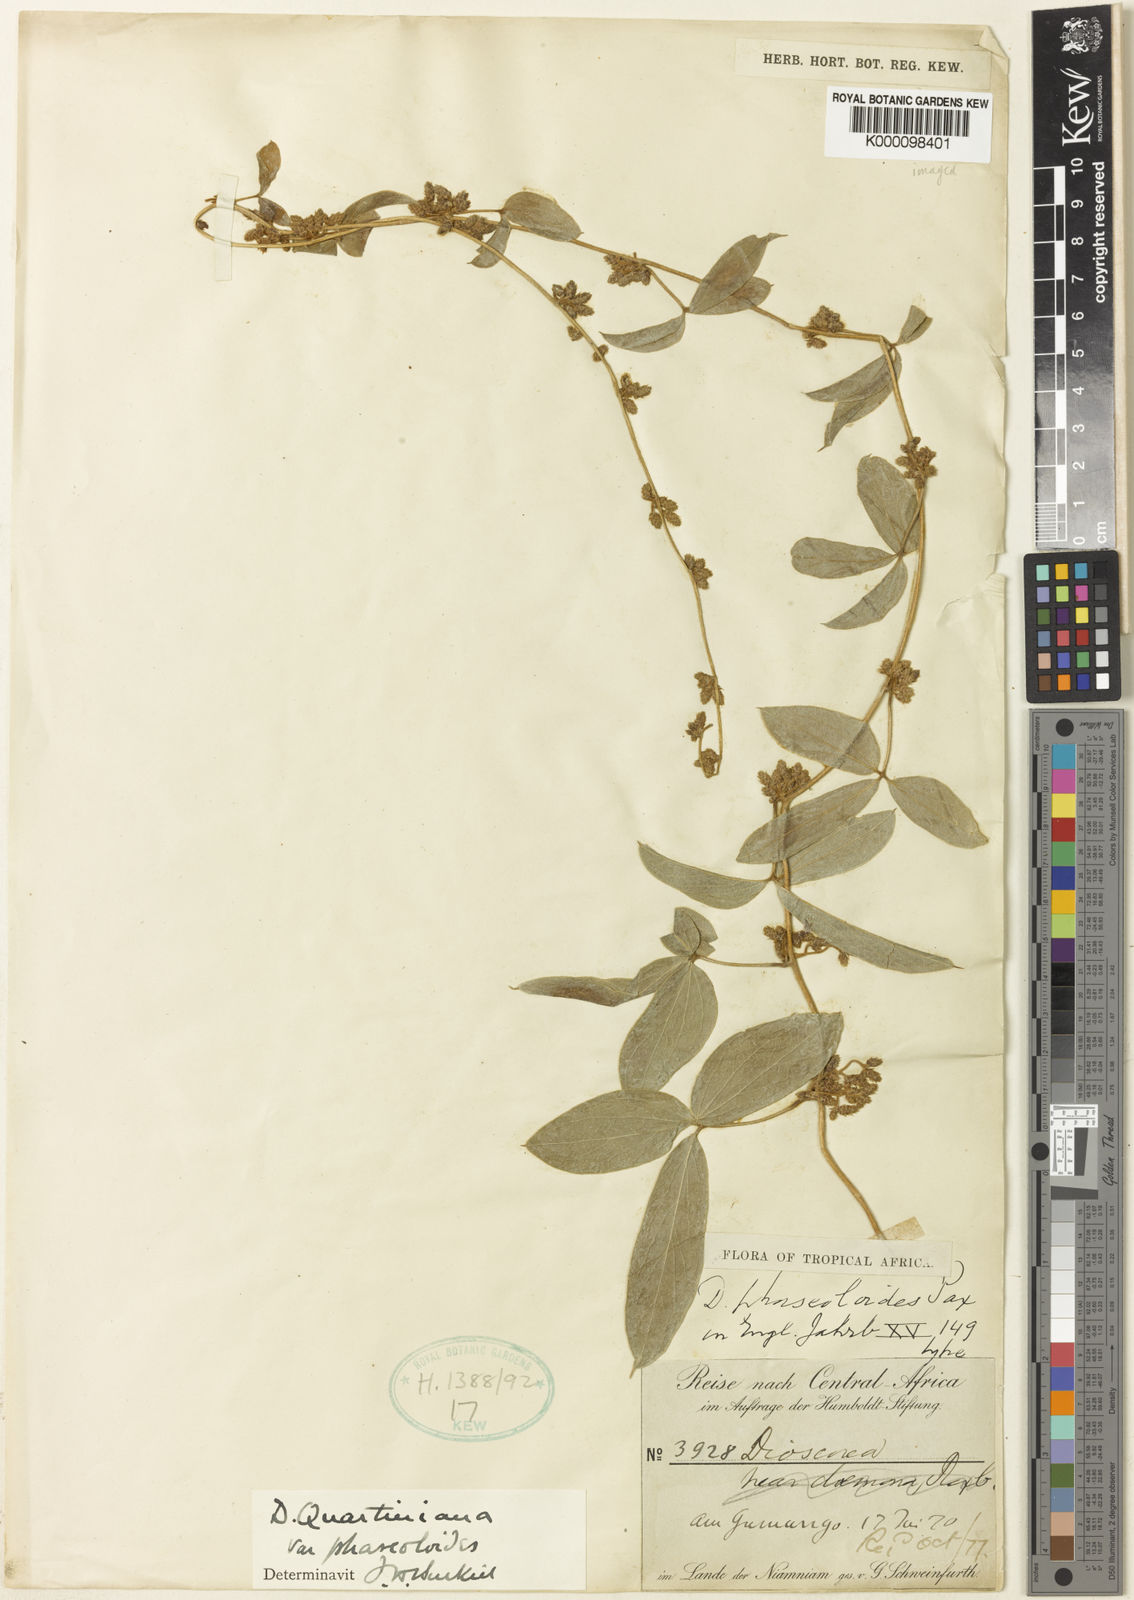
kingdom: Plantae
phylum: Tracheophyta
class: Liliopsida
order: Dioscoreales
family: Dioscoreaceae
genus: Dioscorea
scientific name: Dioscorea quartiniana
